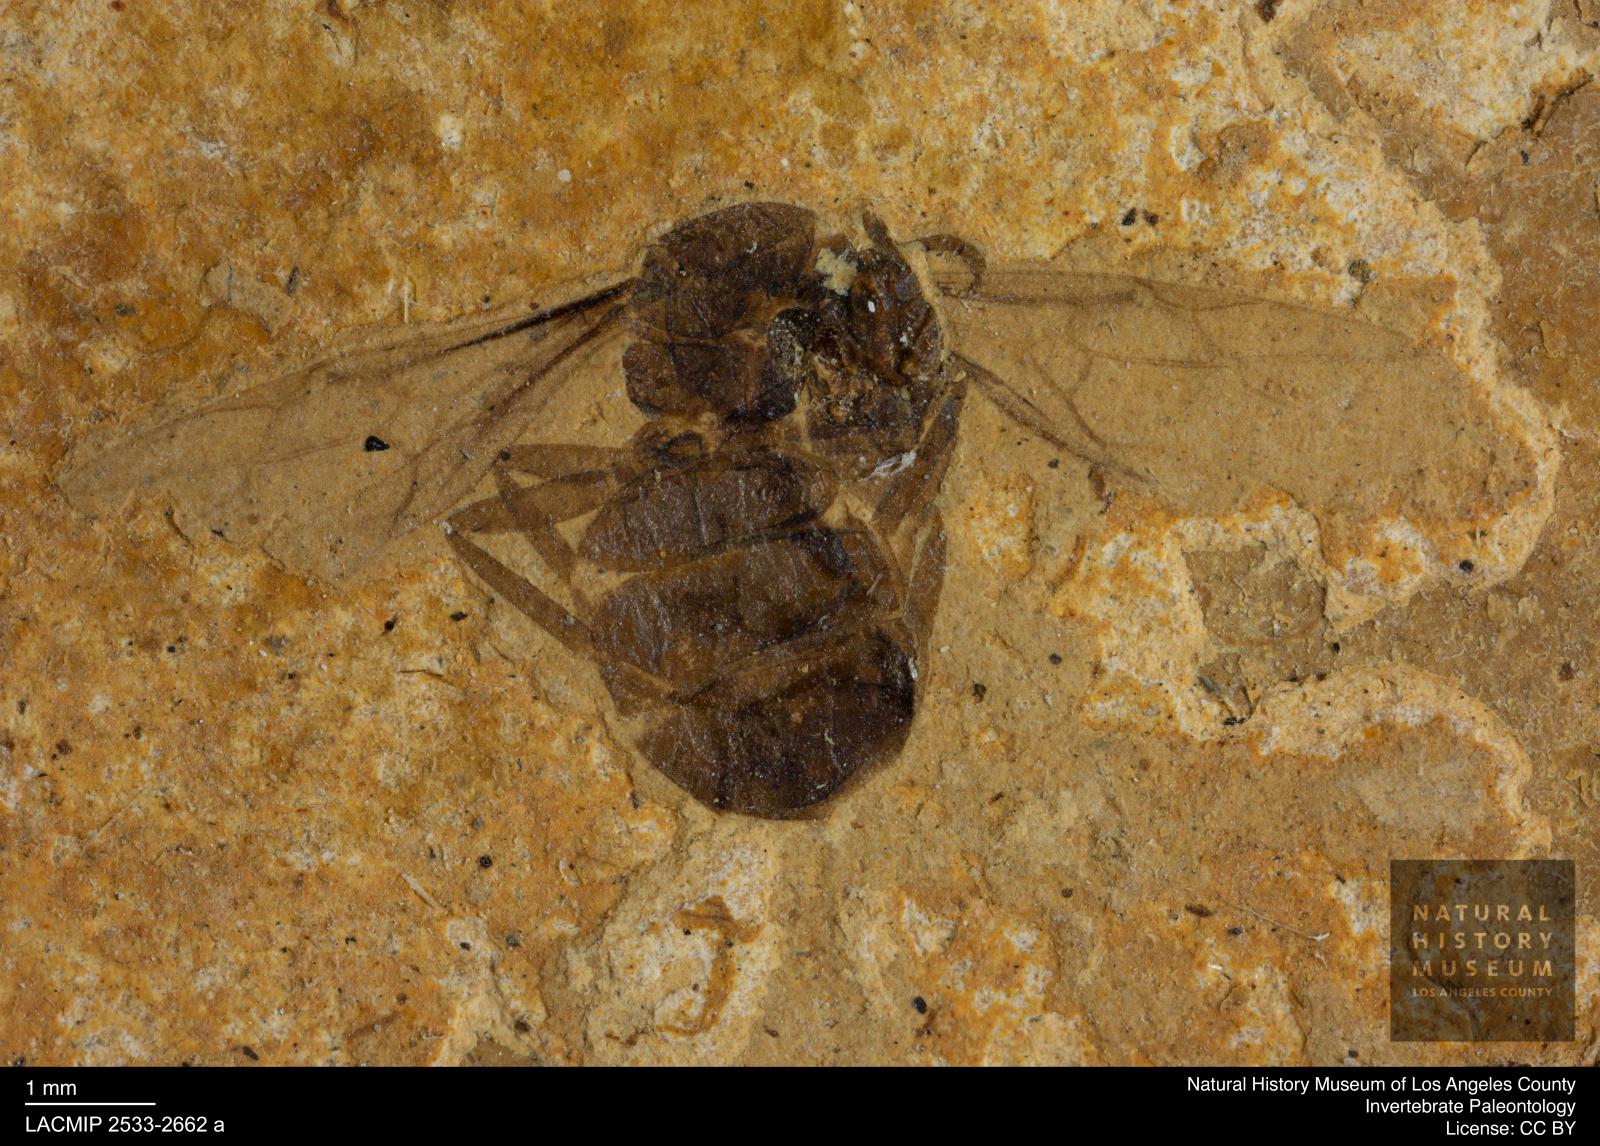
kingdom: Animalia
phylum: Arthropoda
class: Insecta
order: Hymenoptera
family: Formicidae
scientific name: Formicidae
